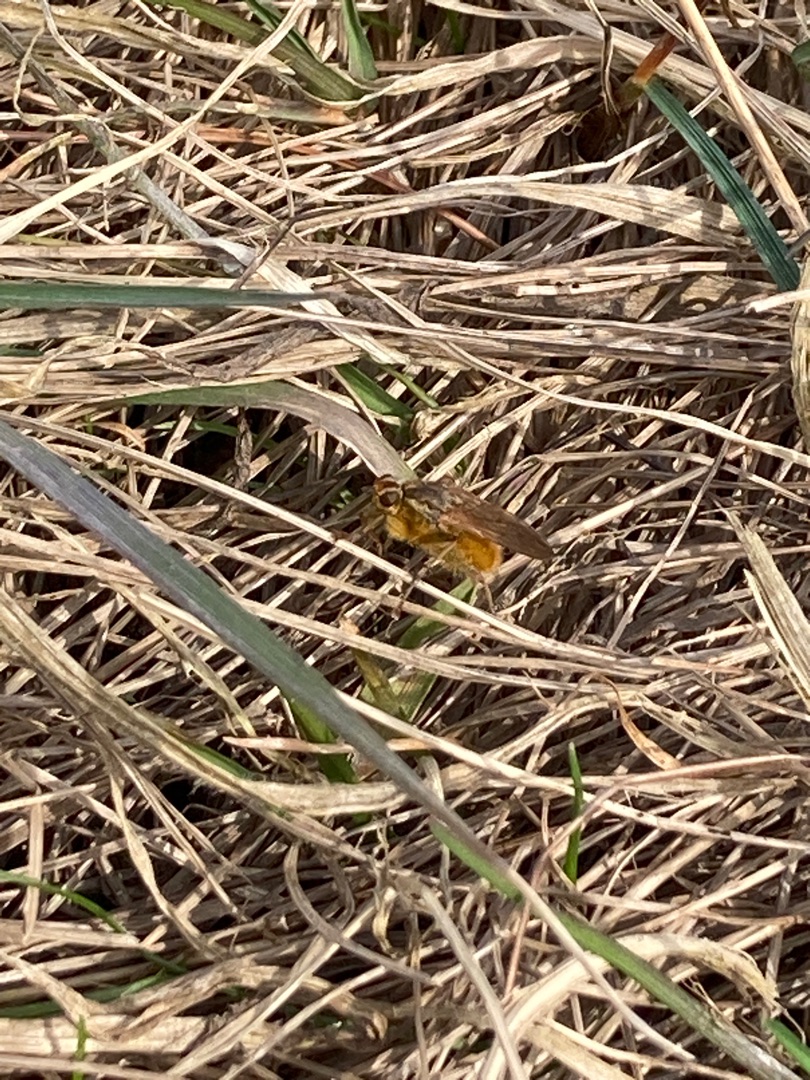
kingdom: Animalia
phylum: Arthropoda
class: Insecta
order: Diptera
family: Scathophagidae
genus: Scathophaga
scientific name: Scathophaga stercoraria
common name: Almindelig gødningsflue
